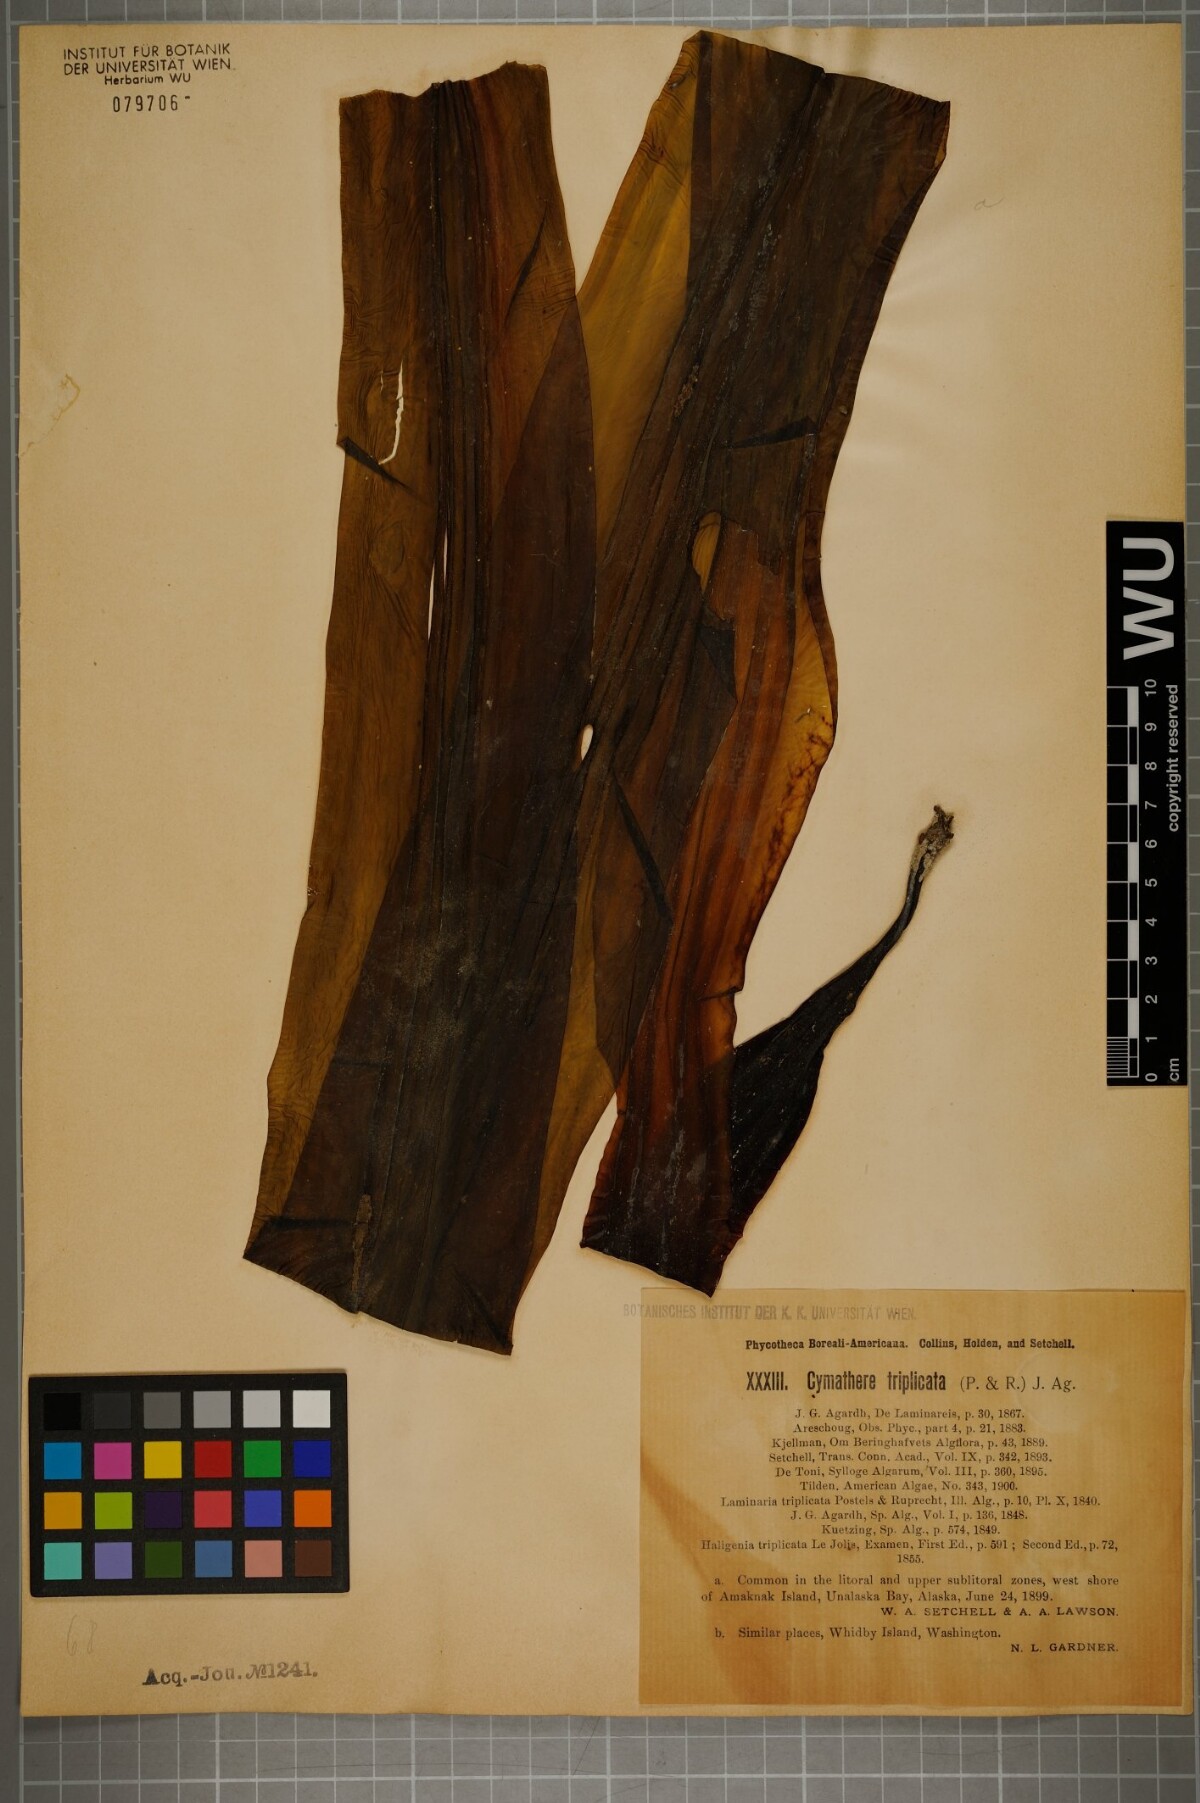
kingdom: Chromista
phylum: Ochrophyta
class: Phaeophyceae
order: Laminariales
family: Laminariaceae
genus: Cymathaere
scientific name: Cymathaere triplicata
